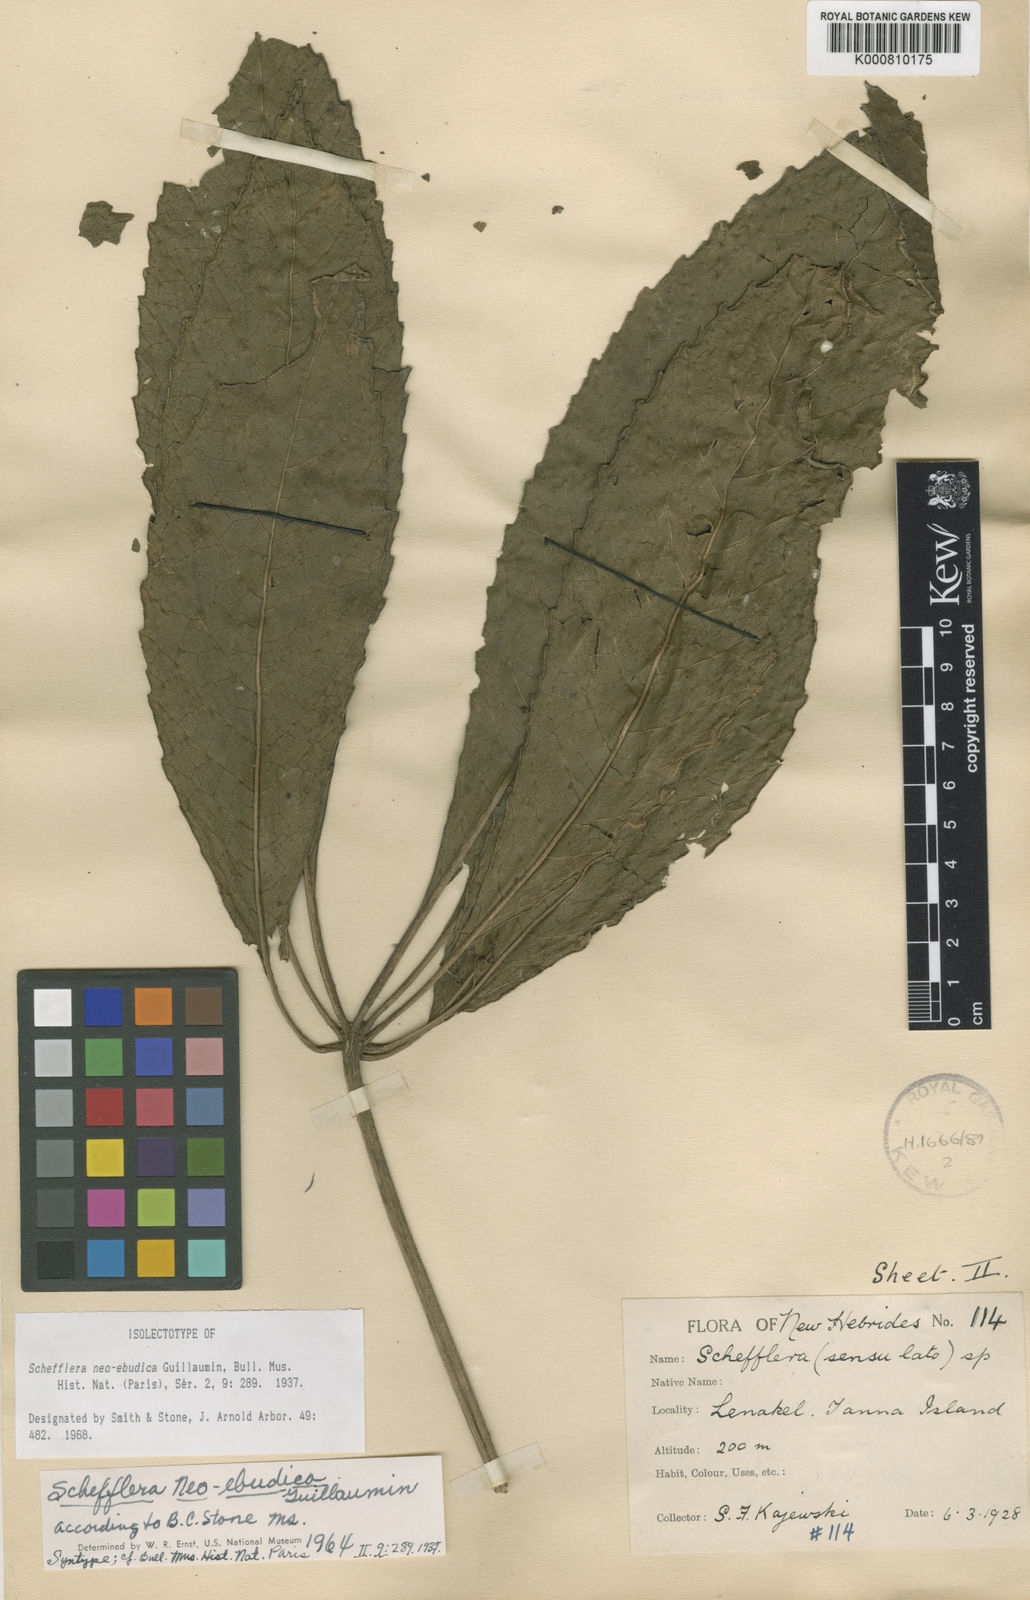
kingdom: Plantae
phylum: Tracheophyta
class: Magnoliopsida
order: Apiales
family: Araliaceae
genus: Schefflera
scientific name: Schefflera neoebudica
